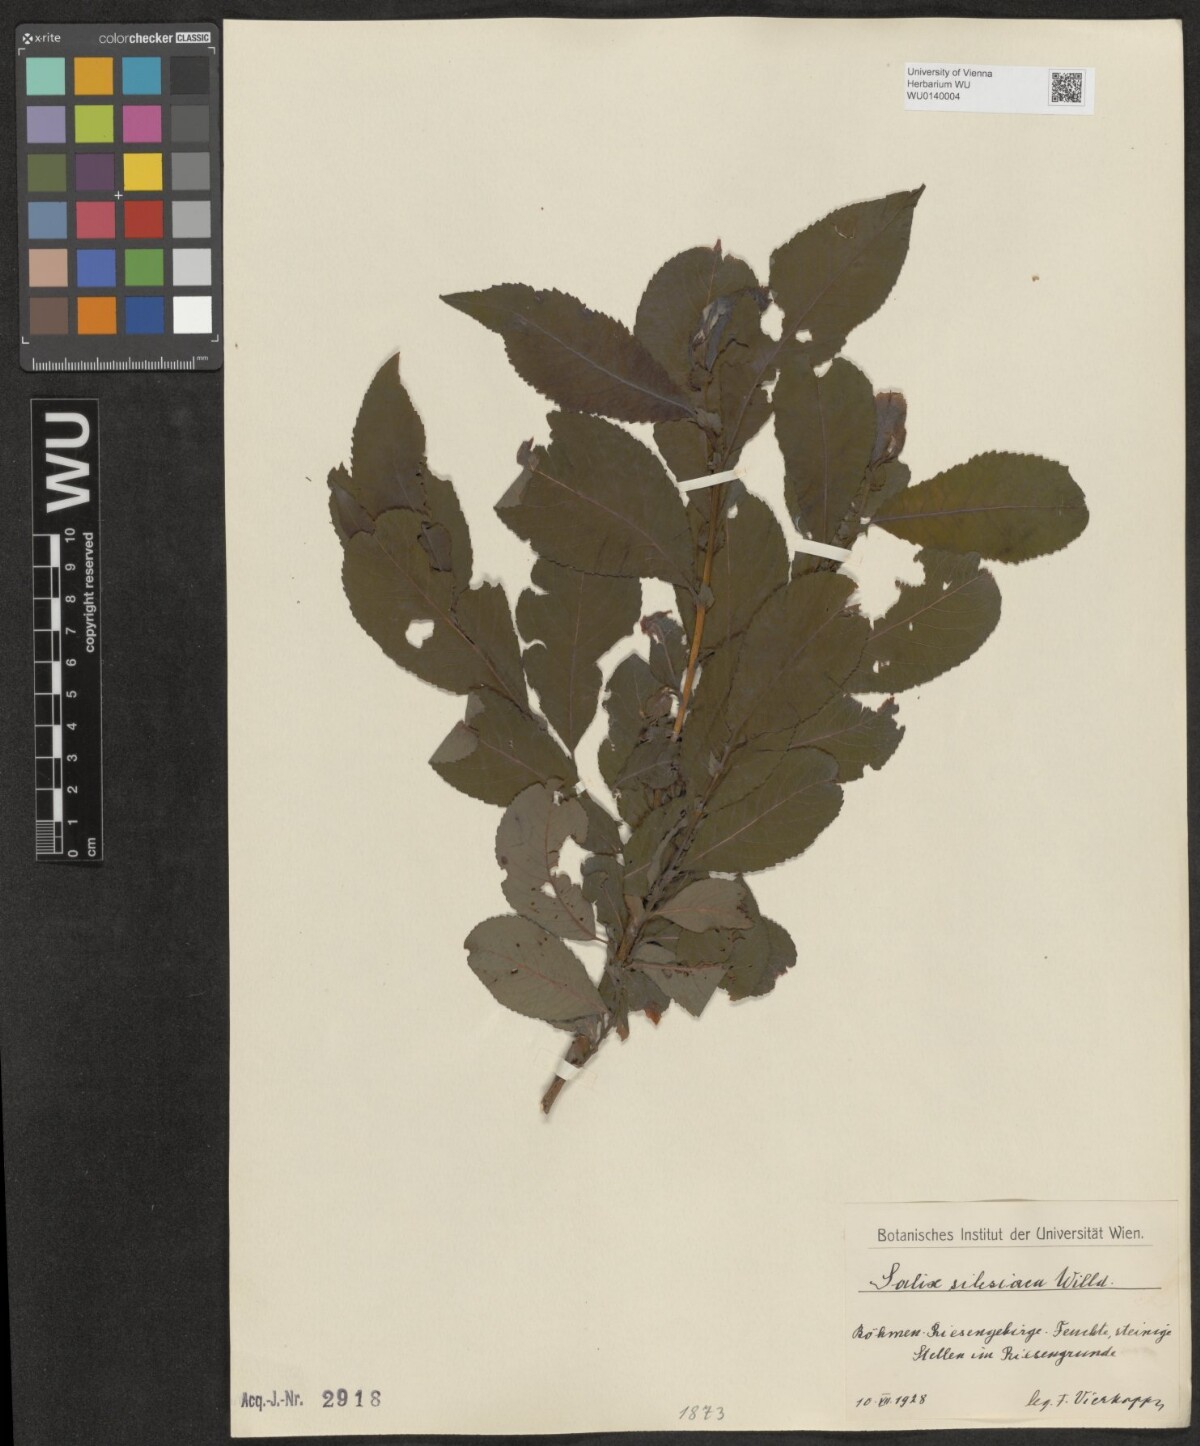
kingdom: Plantae
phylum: Tracheophyta
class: Magnoliopsida
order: Malpighiales
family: Salicaceae
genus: Salix
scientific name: Salix silesiaca
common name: Silesian willow
